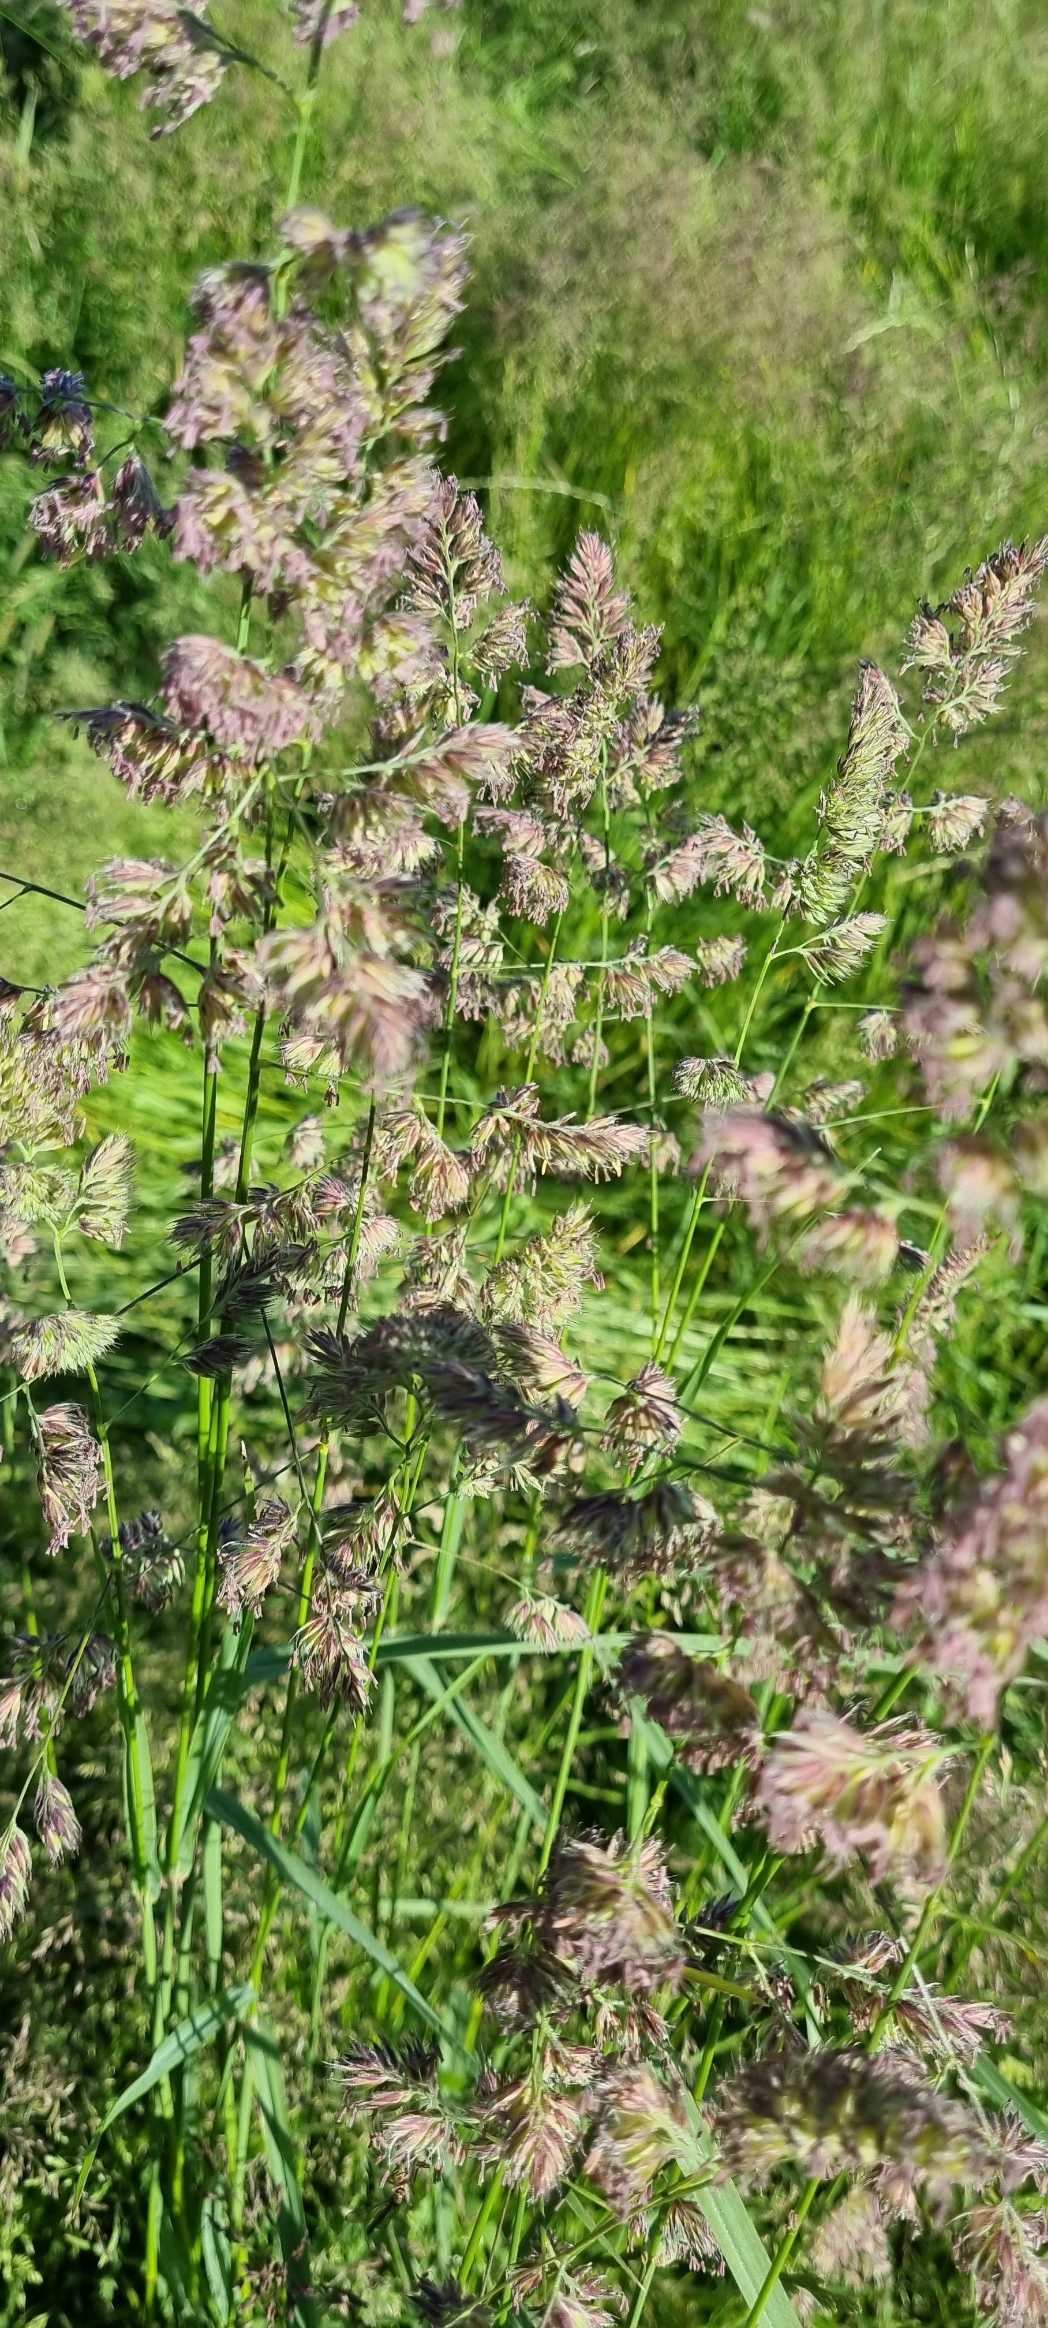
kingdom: Plantae
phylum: Tracheophyta
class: Liliopsida
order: Poales
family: Poaceae
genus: Dactylis
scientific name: Dactylis glomerata
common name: Almindelig hundegræs
